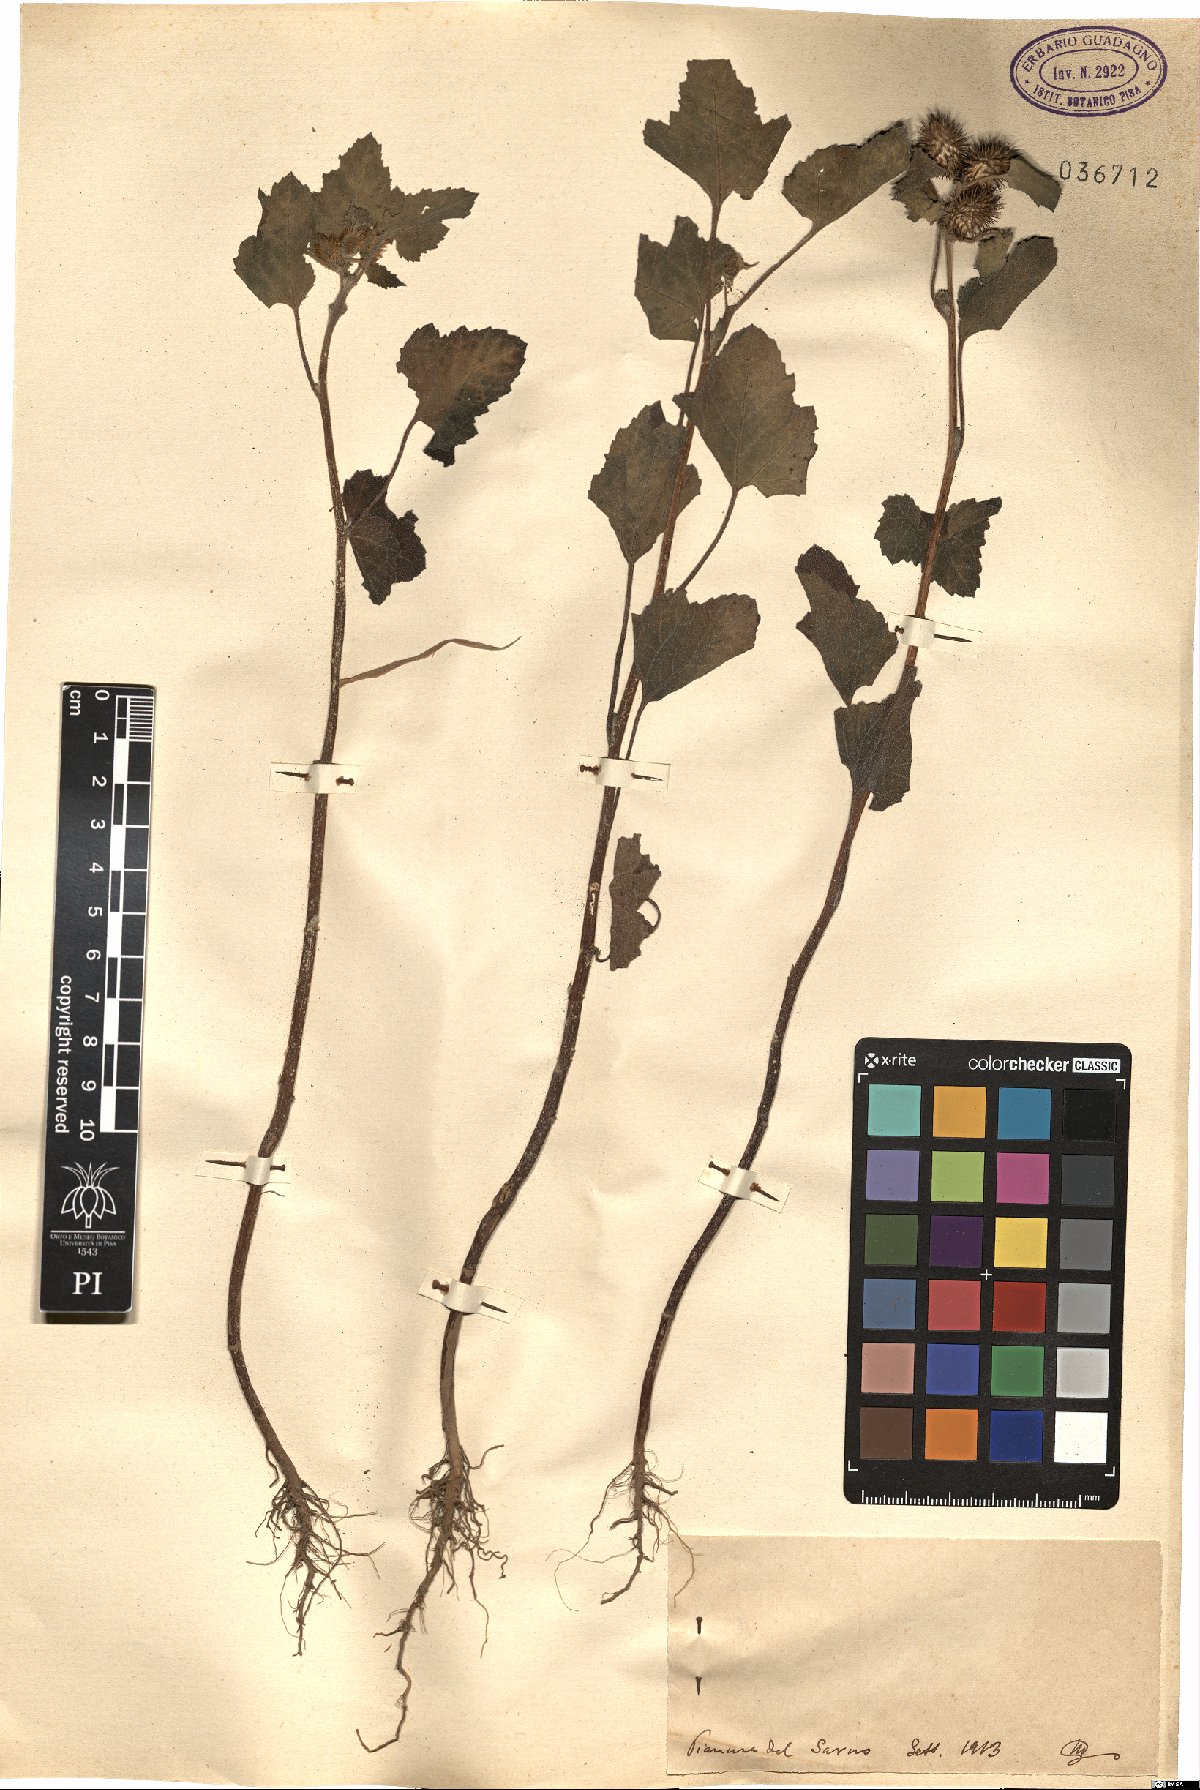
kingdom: Plantae
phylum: Tracheophyta
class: Magnoliopsida
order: Asterales
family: Asteraceae
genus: Xanthium
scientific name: Xanthium
